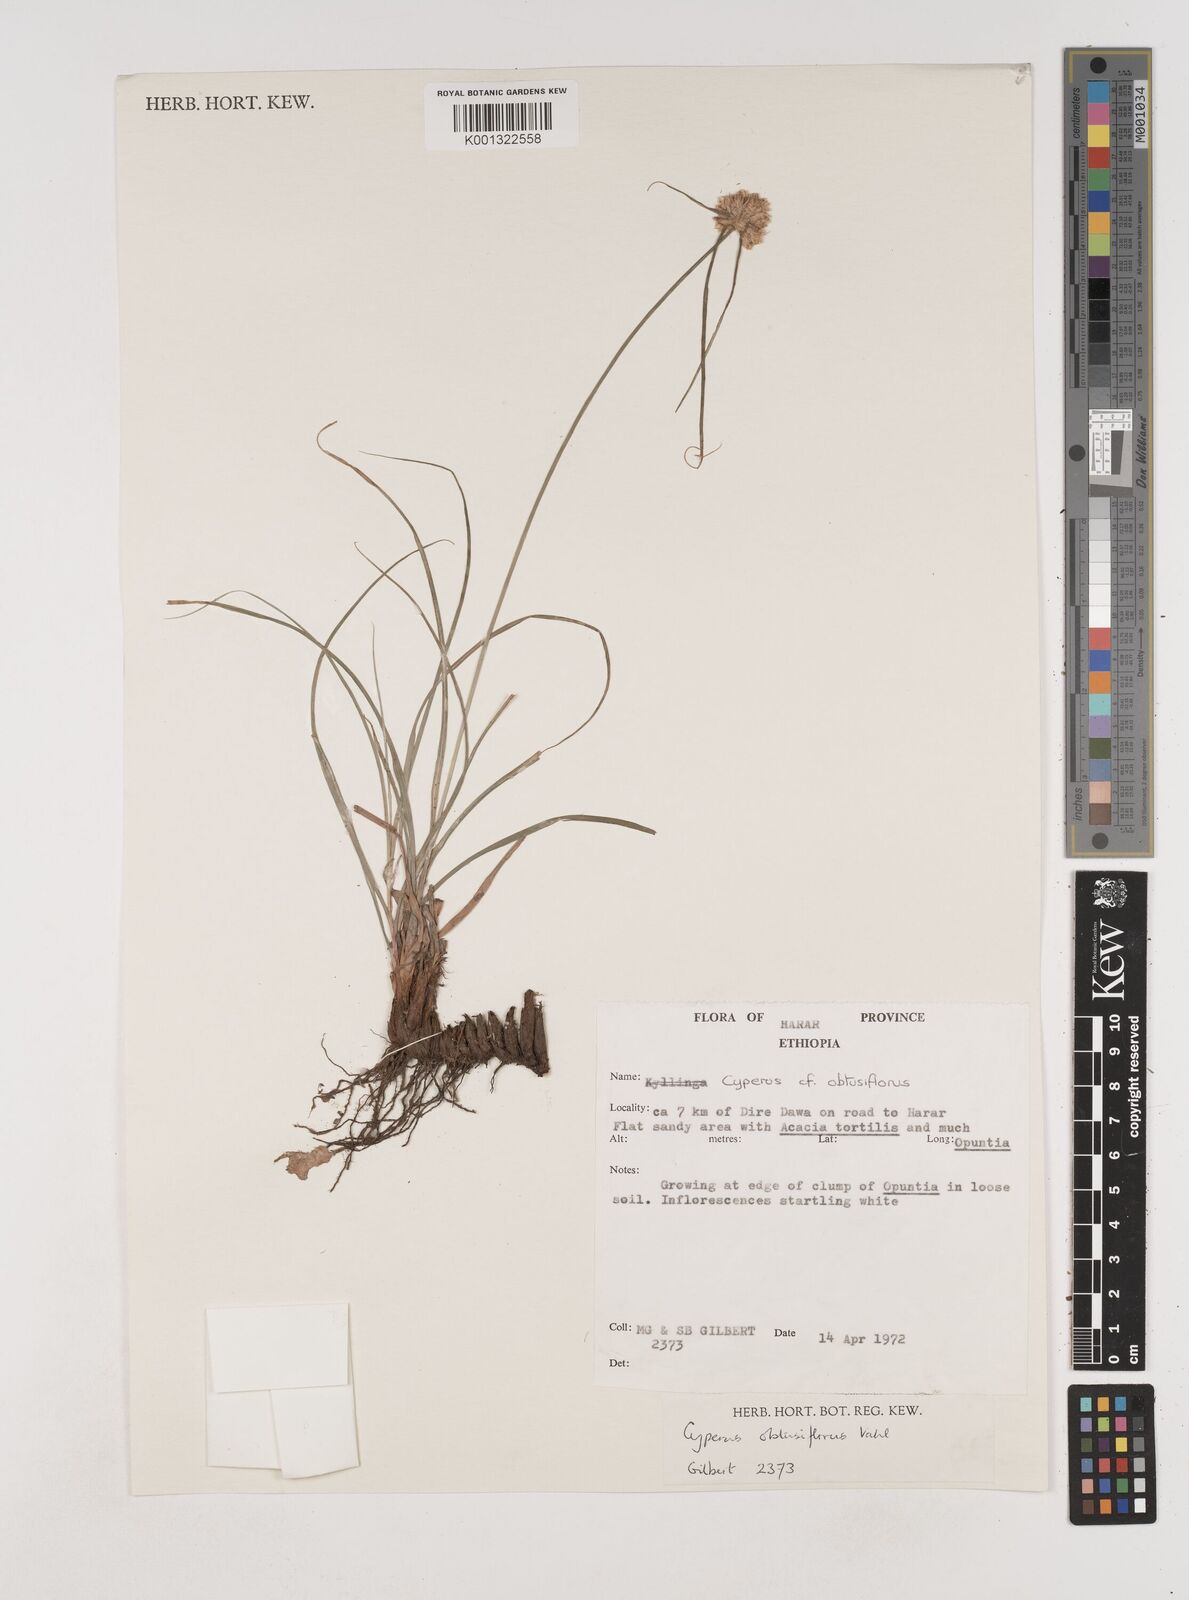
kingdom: Plantae
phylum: Tracheophyta
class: Liliopsida
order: Poales
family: Cyperaceae
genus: Cyperus
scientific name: Cyperus niveus
